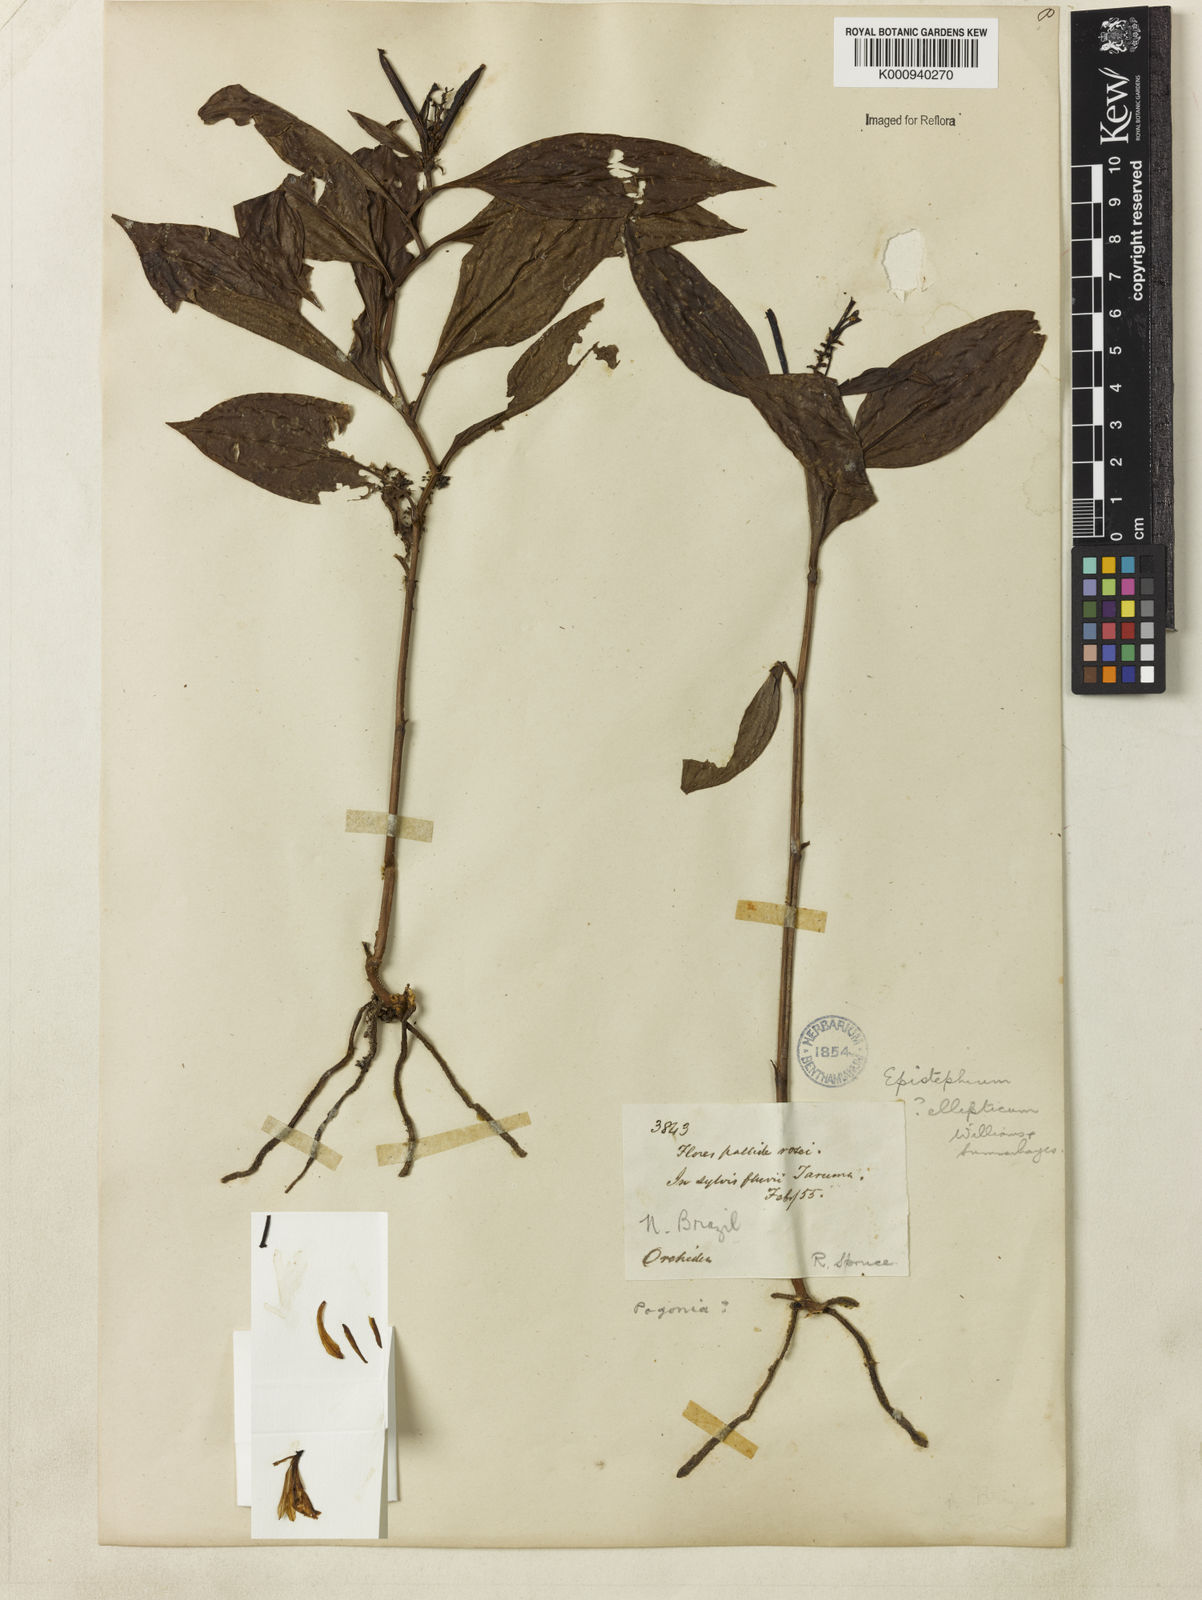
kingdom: Plantae
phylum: Tracheophyta
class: Liliopsida
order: Asparagales
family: Orchidaceae
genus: Epistephium
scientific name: Epistephium ellipticum
